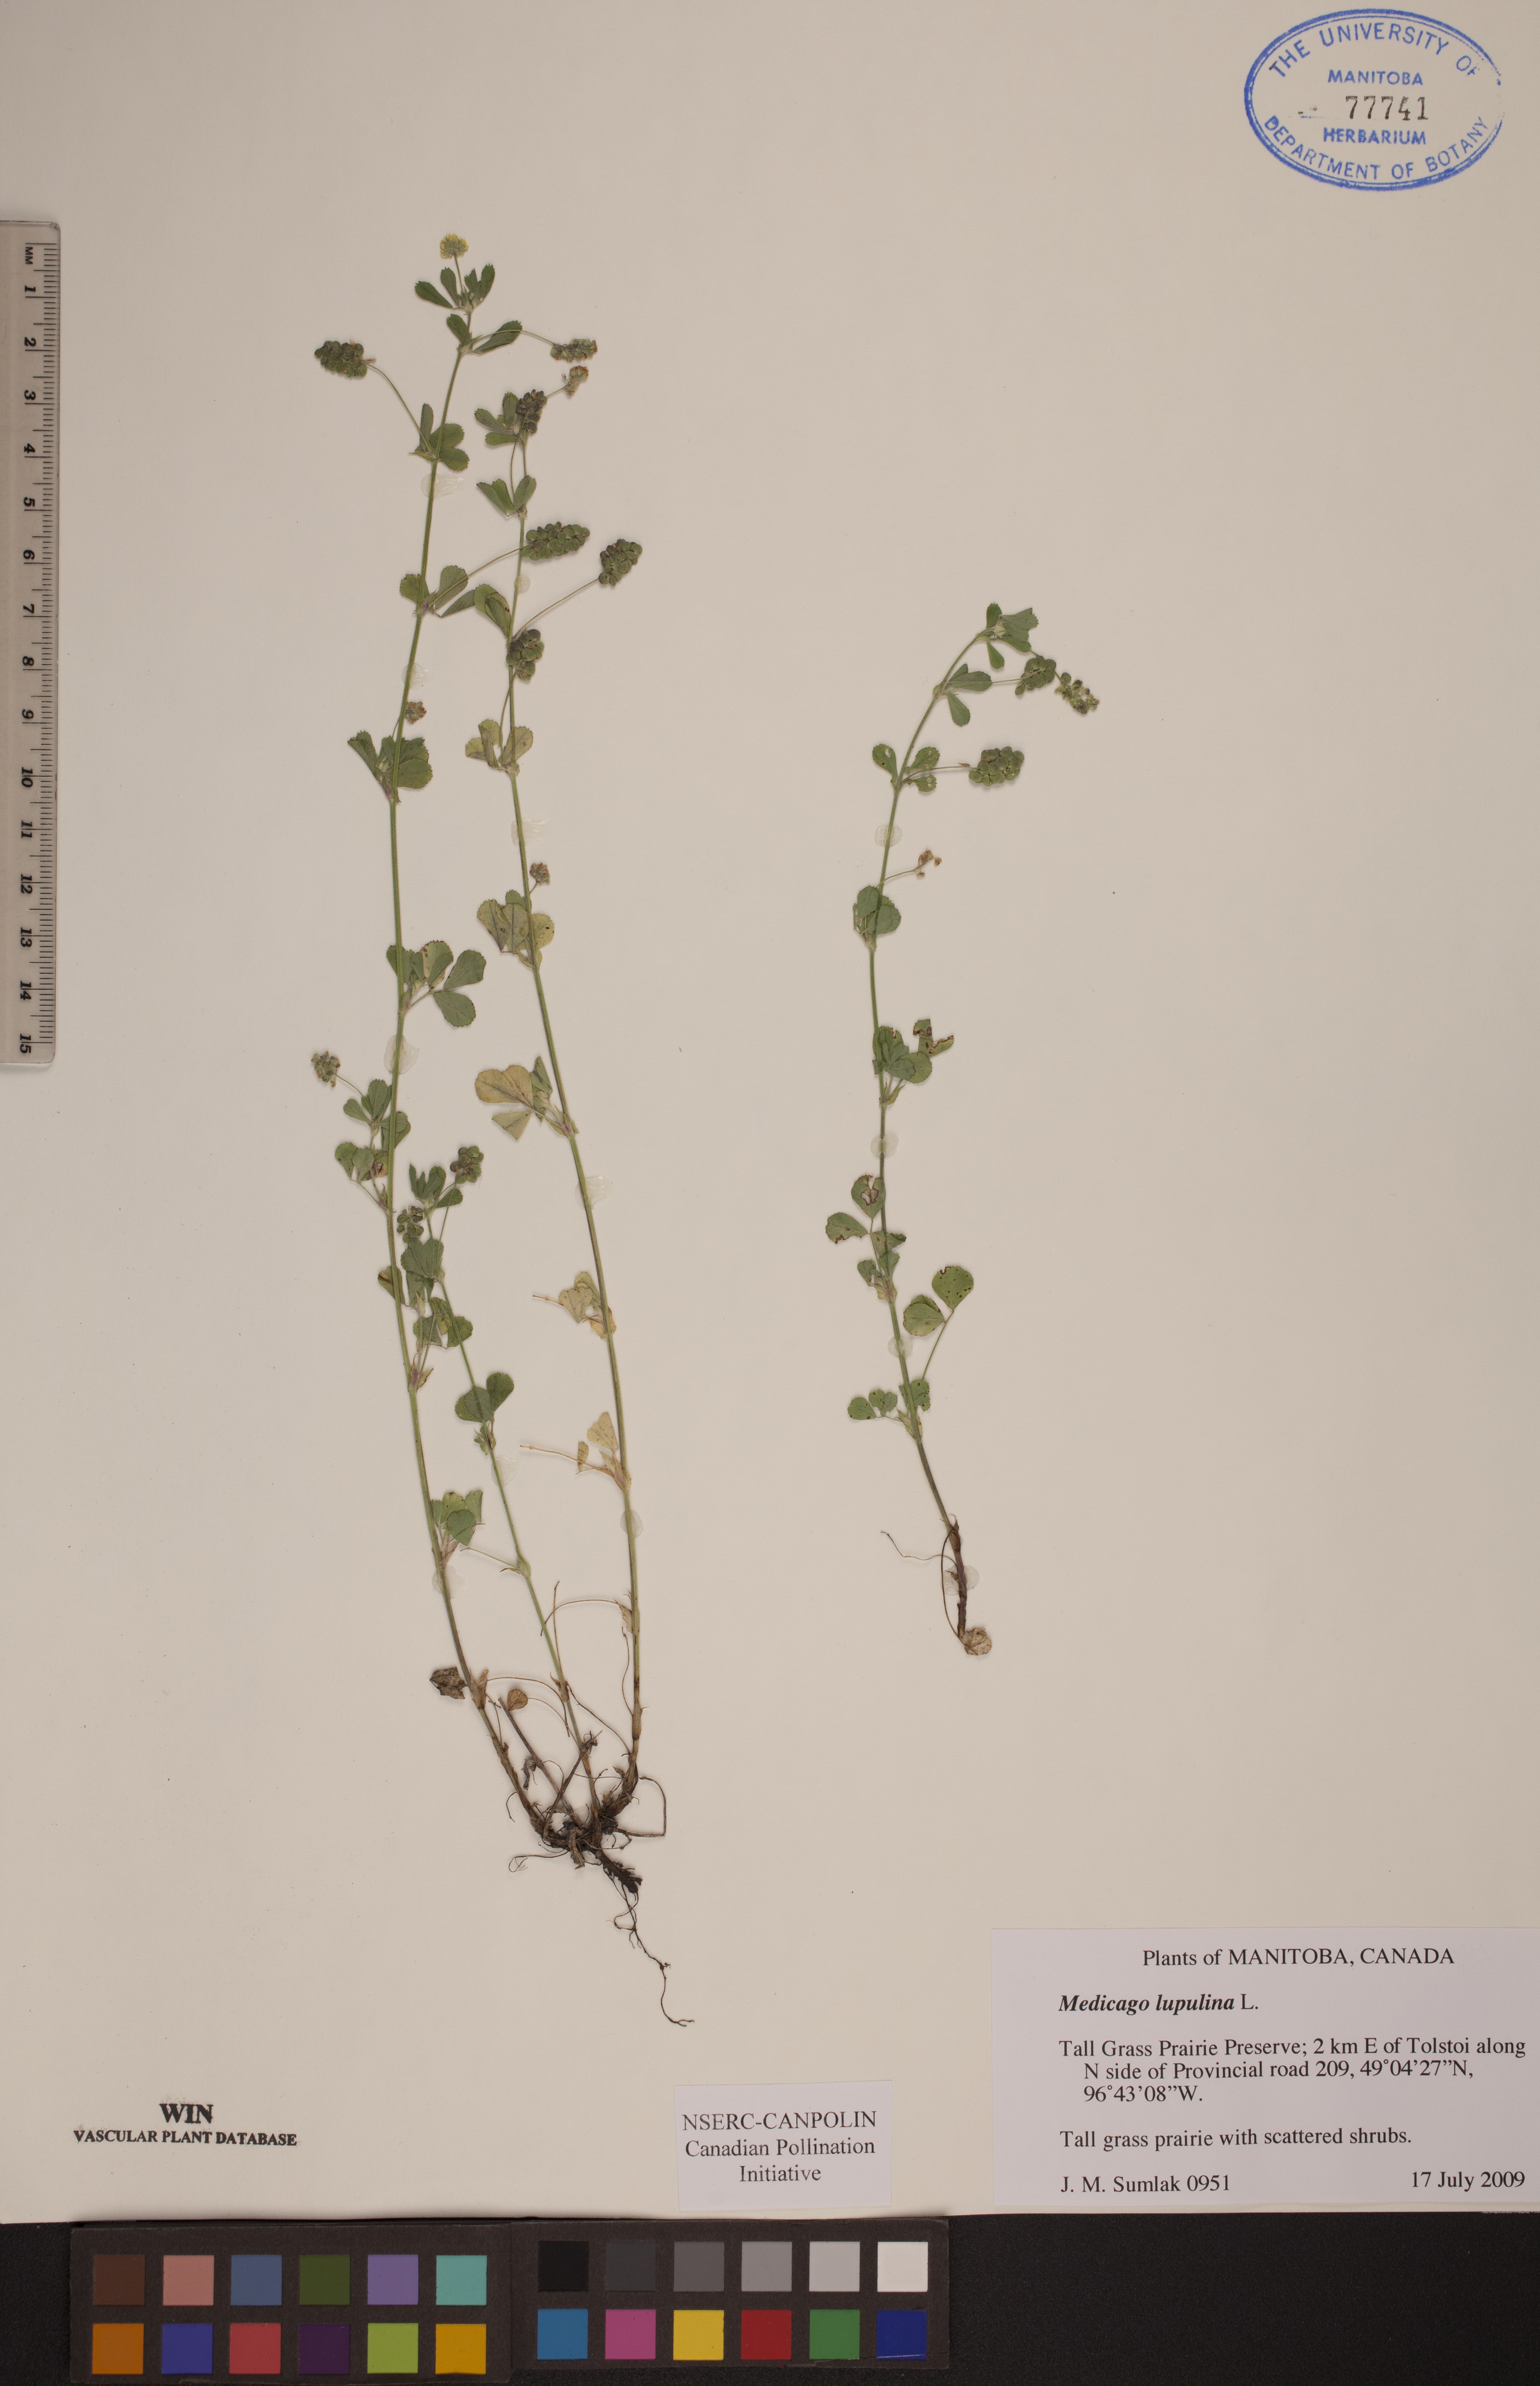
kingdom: Plantae
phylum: Tracheophyta
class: Magnoliopsida
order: Fabales
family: Fabaceae
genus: Medicago
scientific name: Medicago lupulina
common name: Black medick
